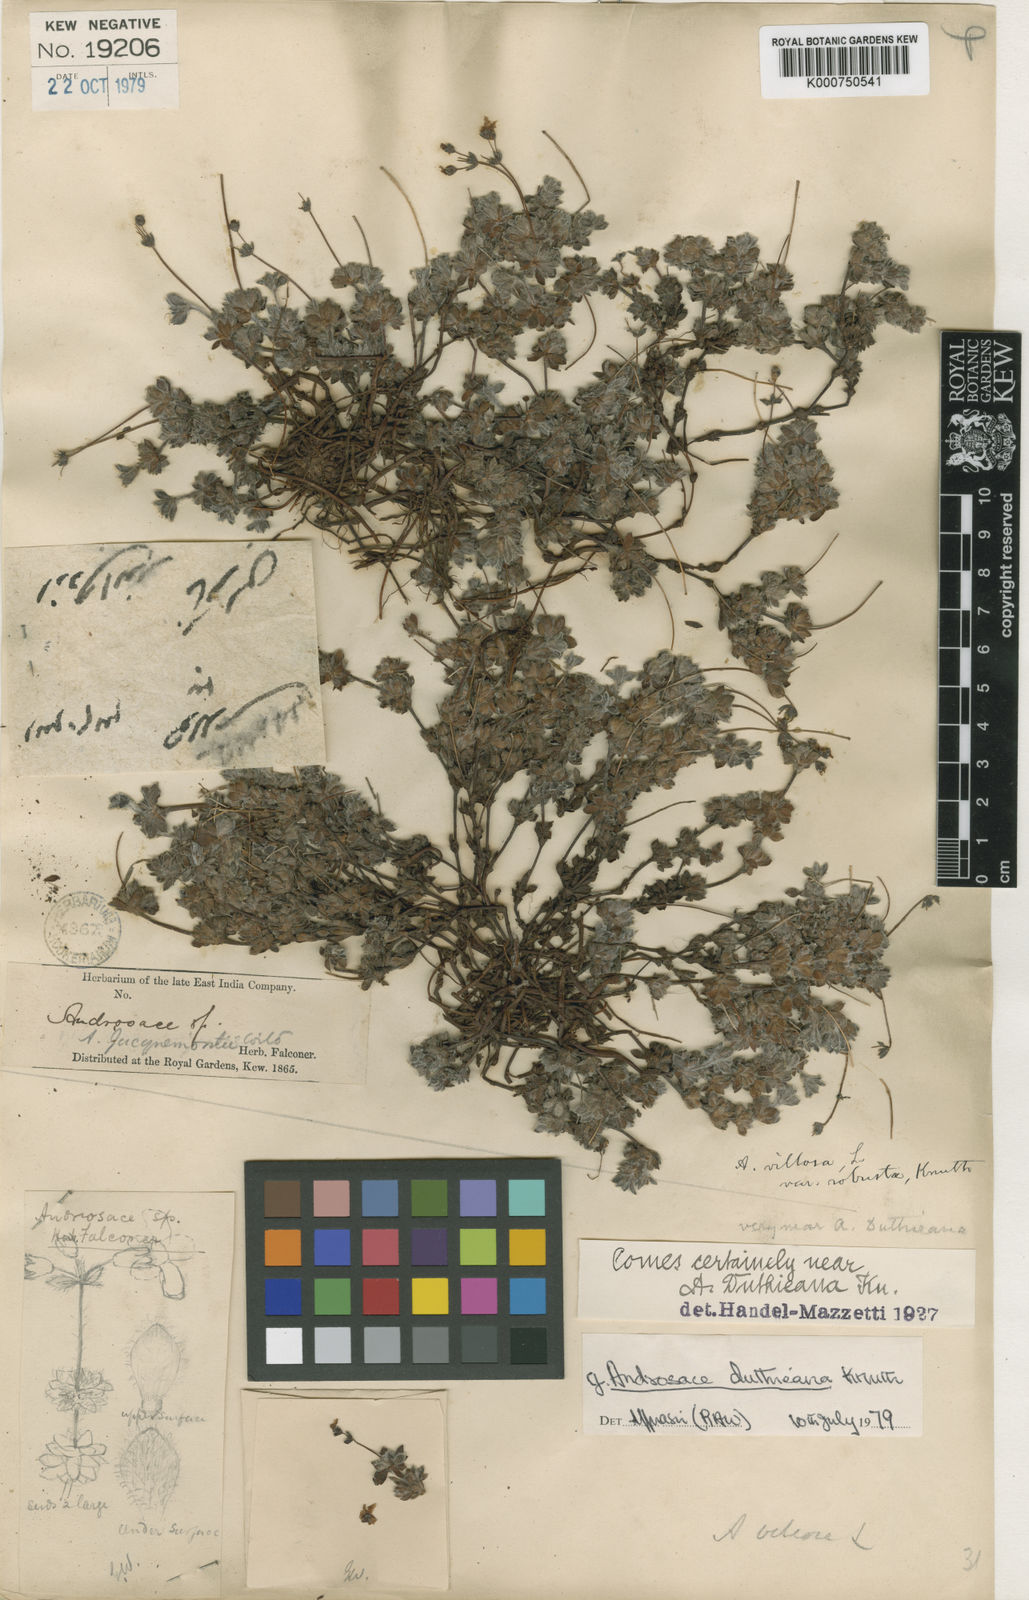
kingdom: Plantae
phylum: Tracheophyta
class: Magnoliopsida
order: Ericales
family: Primulaceae
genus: Androsace
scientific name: Androsace jacquemontii
